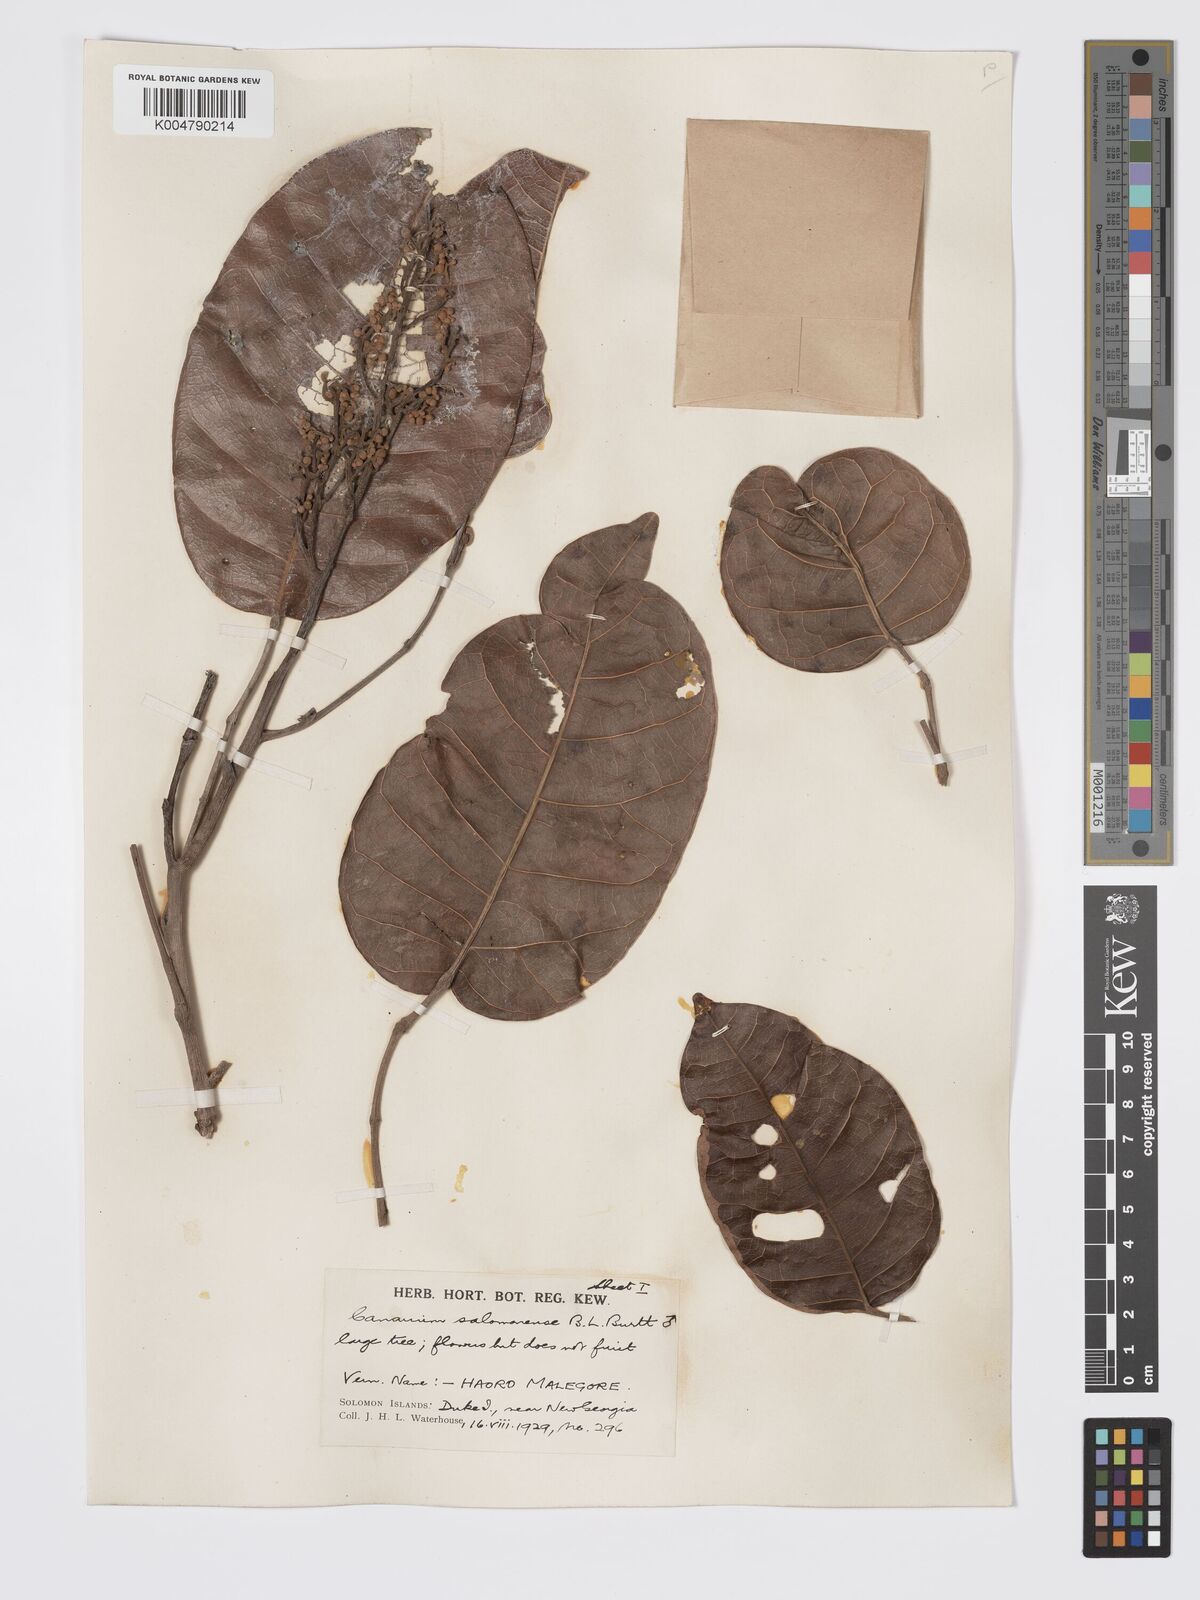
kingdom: Plantae
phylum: Tracheophyta
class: Magnoliopsida
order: Sapindales
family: Burseraceae
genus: Canarium
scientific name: Canarium salomonense
